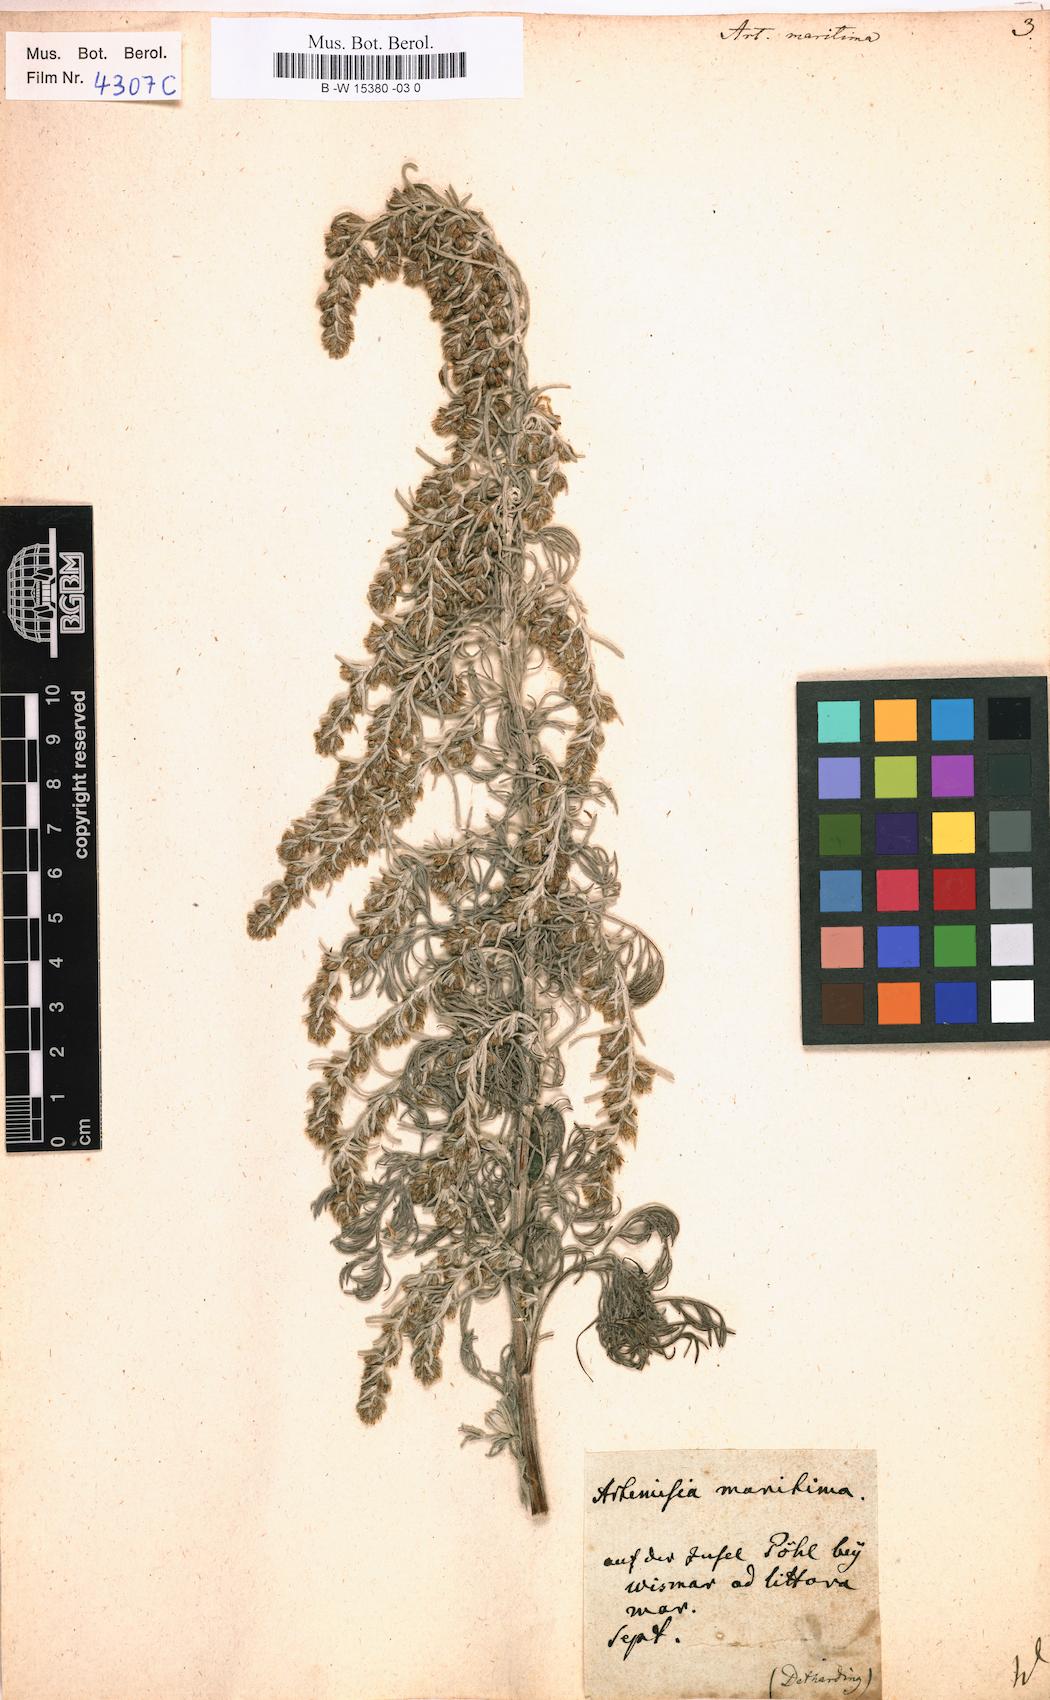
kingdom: Plantae
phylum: Tracheophyta
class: Magnoliopsida
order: Asterales
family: Asteraceae
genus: Artemisia
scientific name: Artemisia maritima
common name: Wormseed
